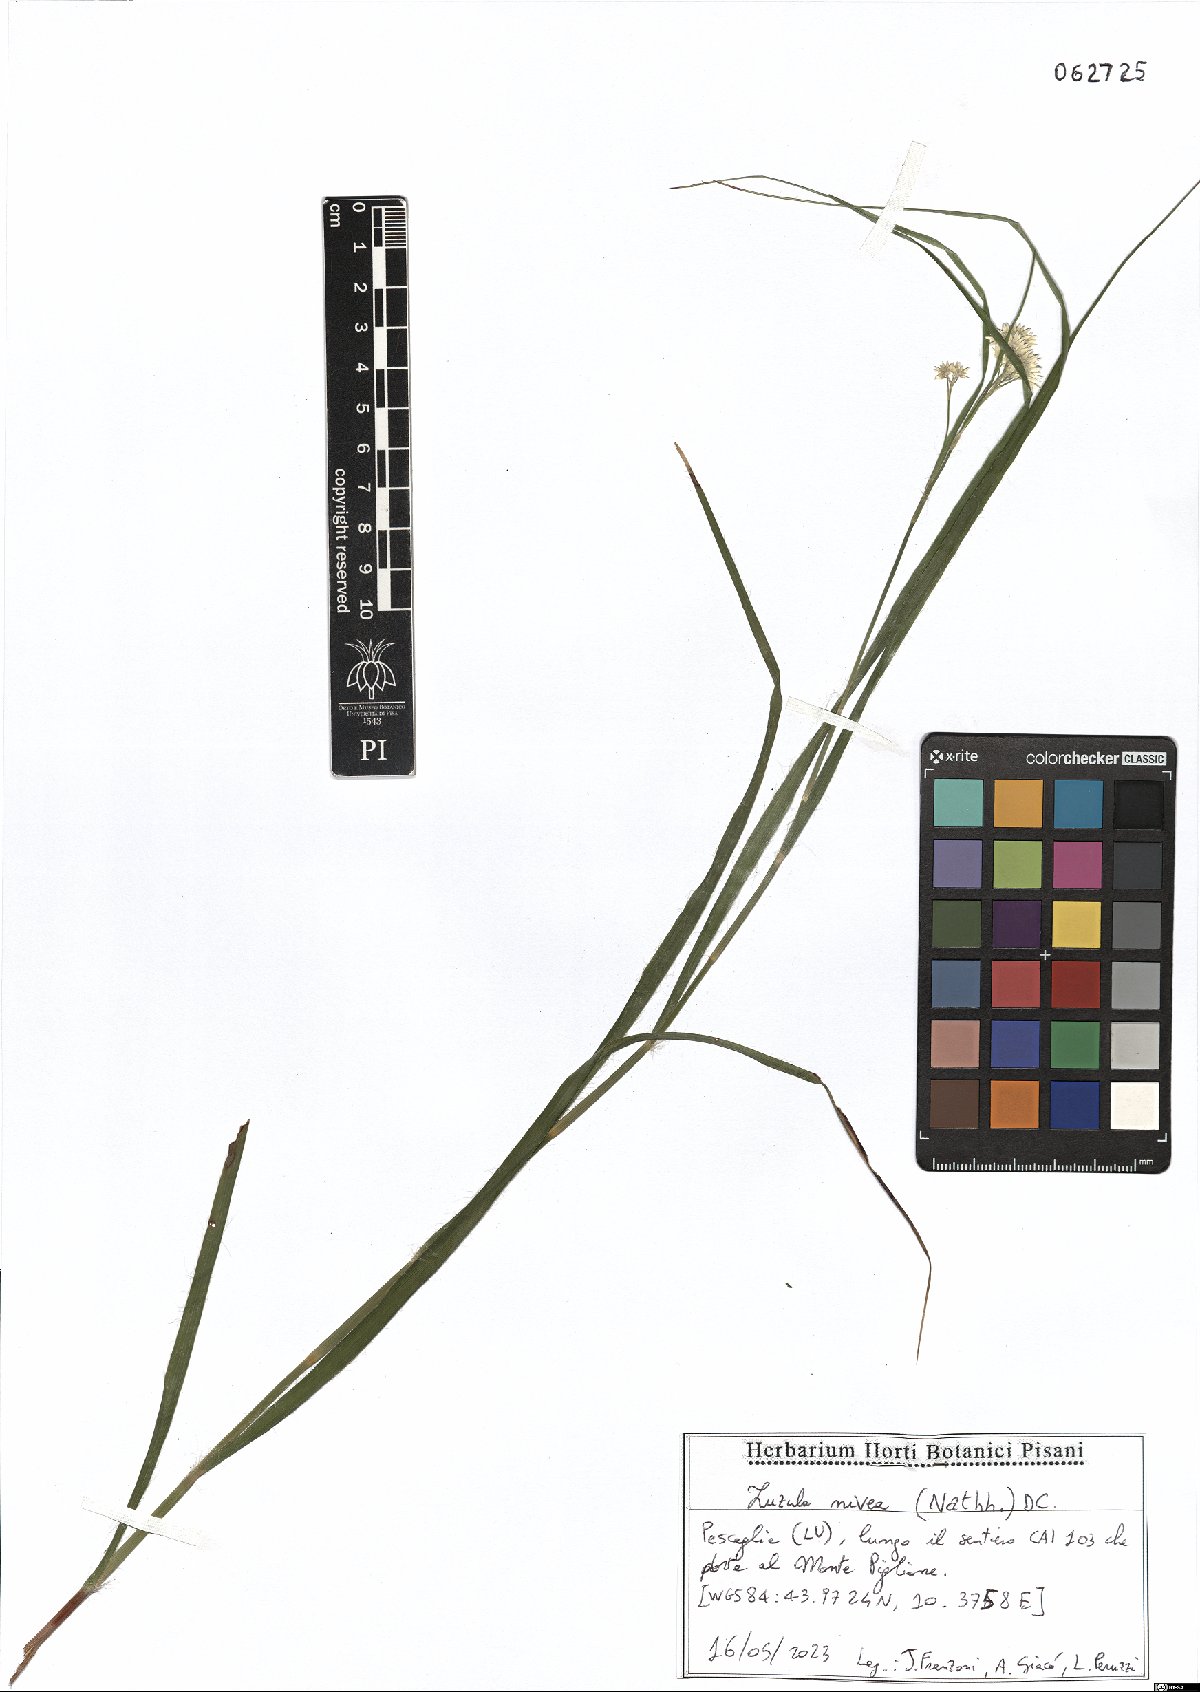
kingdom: Plantae
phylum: Tracheophyta
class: Liliopsida
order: Poales
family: Juncaceae
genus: Luzula
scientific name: Luzula nivea
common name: Snow-white wood-rush
